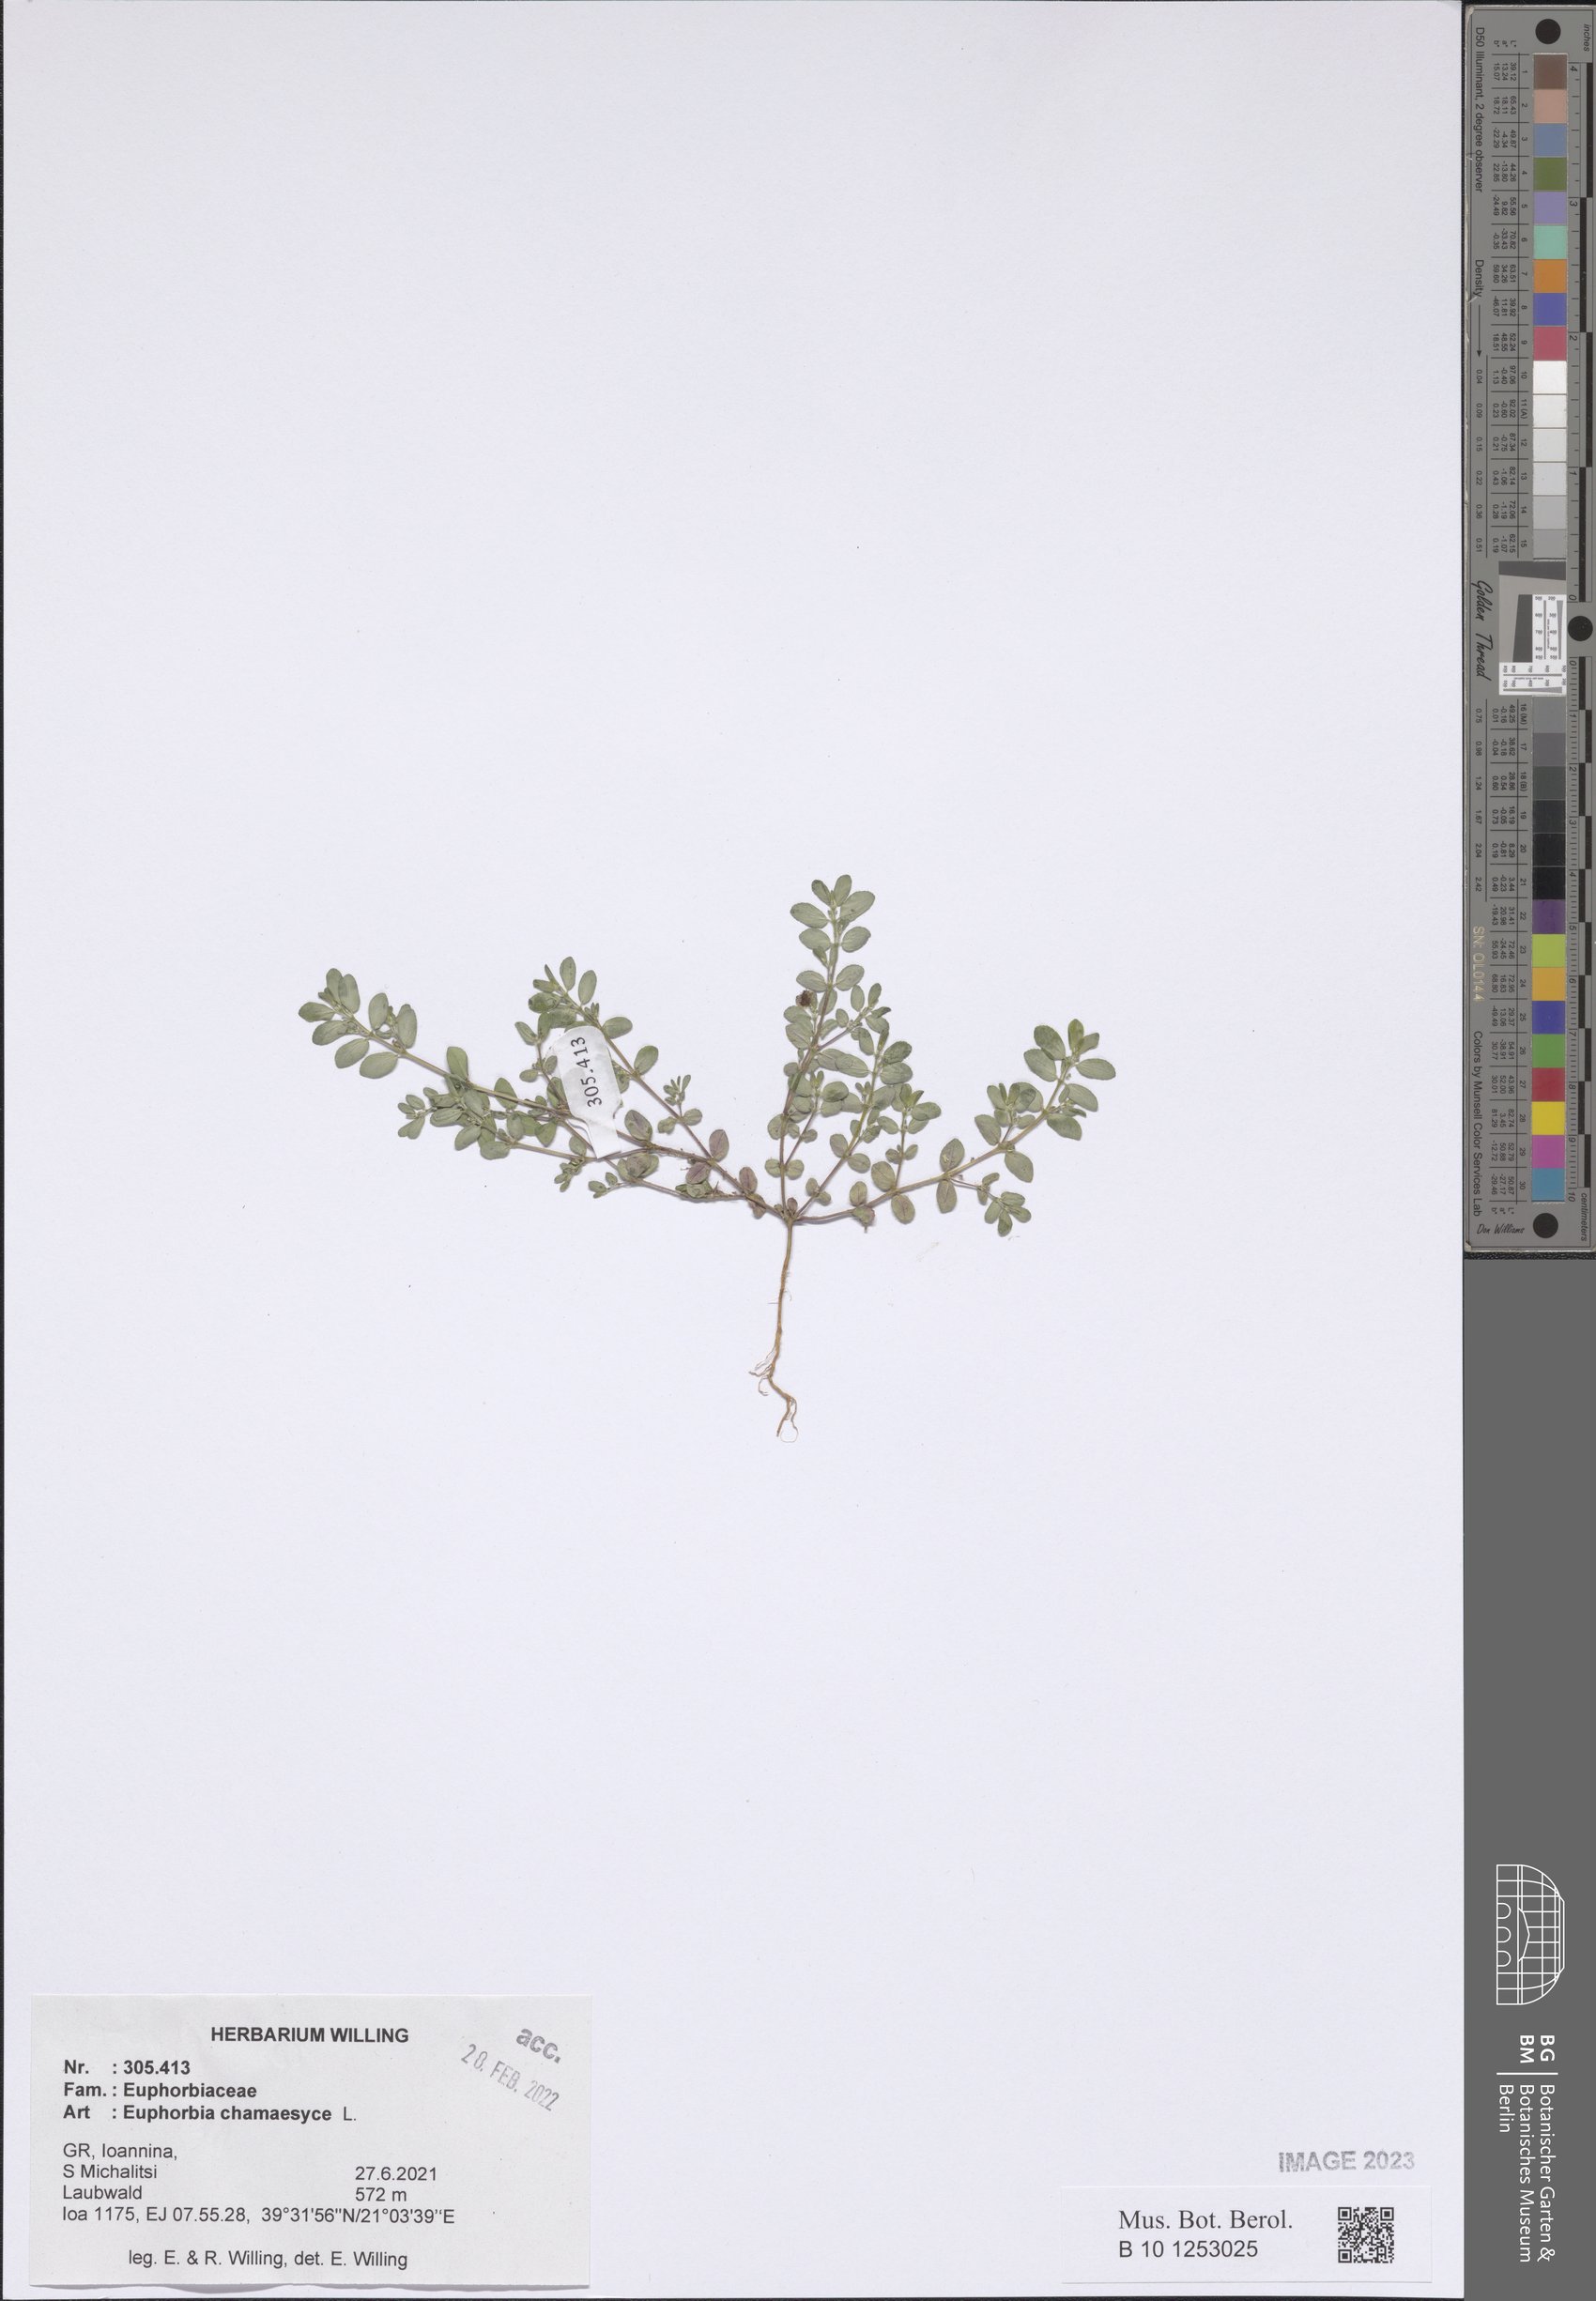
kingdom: Plantae
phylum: Tracheophyta
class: Magnoliopsida
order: Malpighiales
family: Euphorbiaceae
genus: Euphorbia
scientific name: Euphorbia chamaesyce
